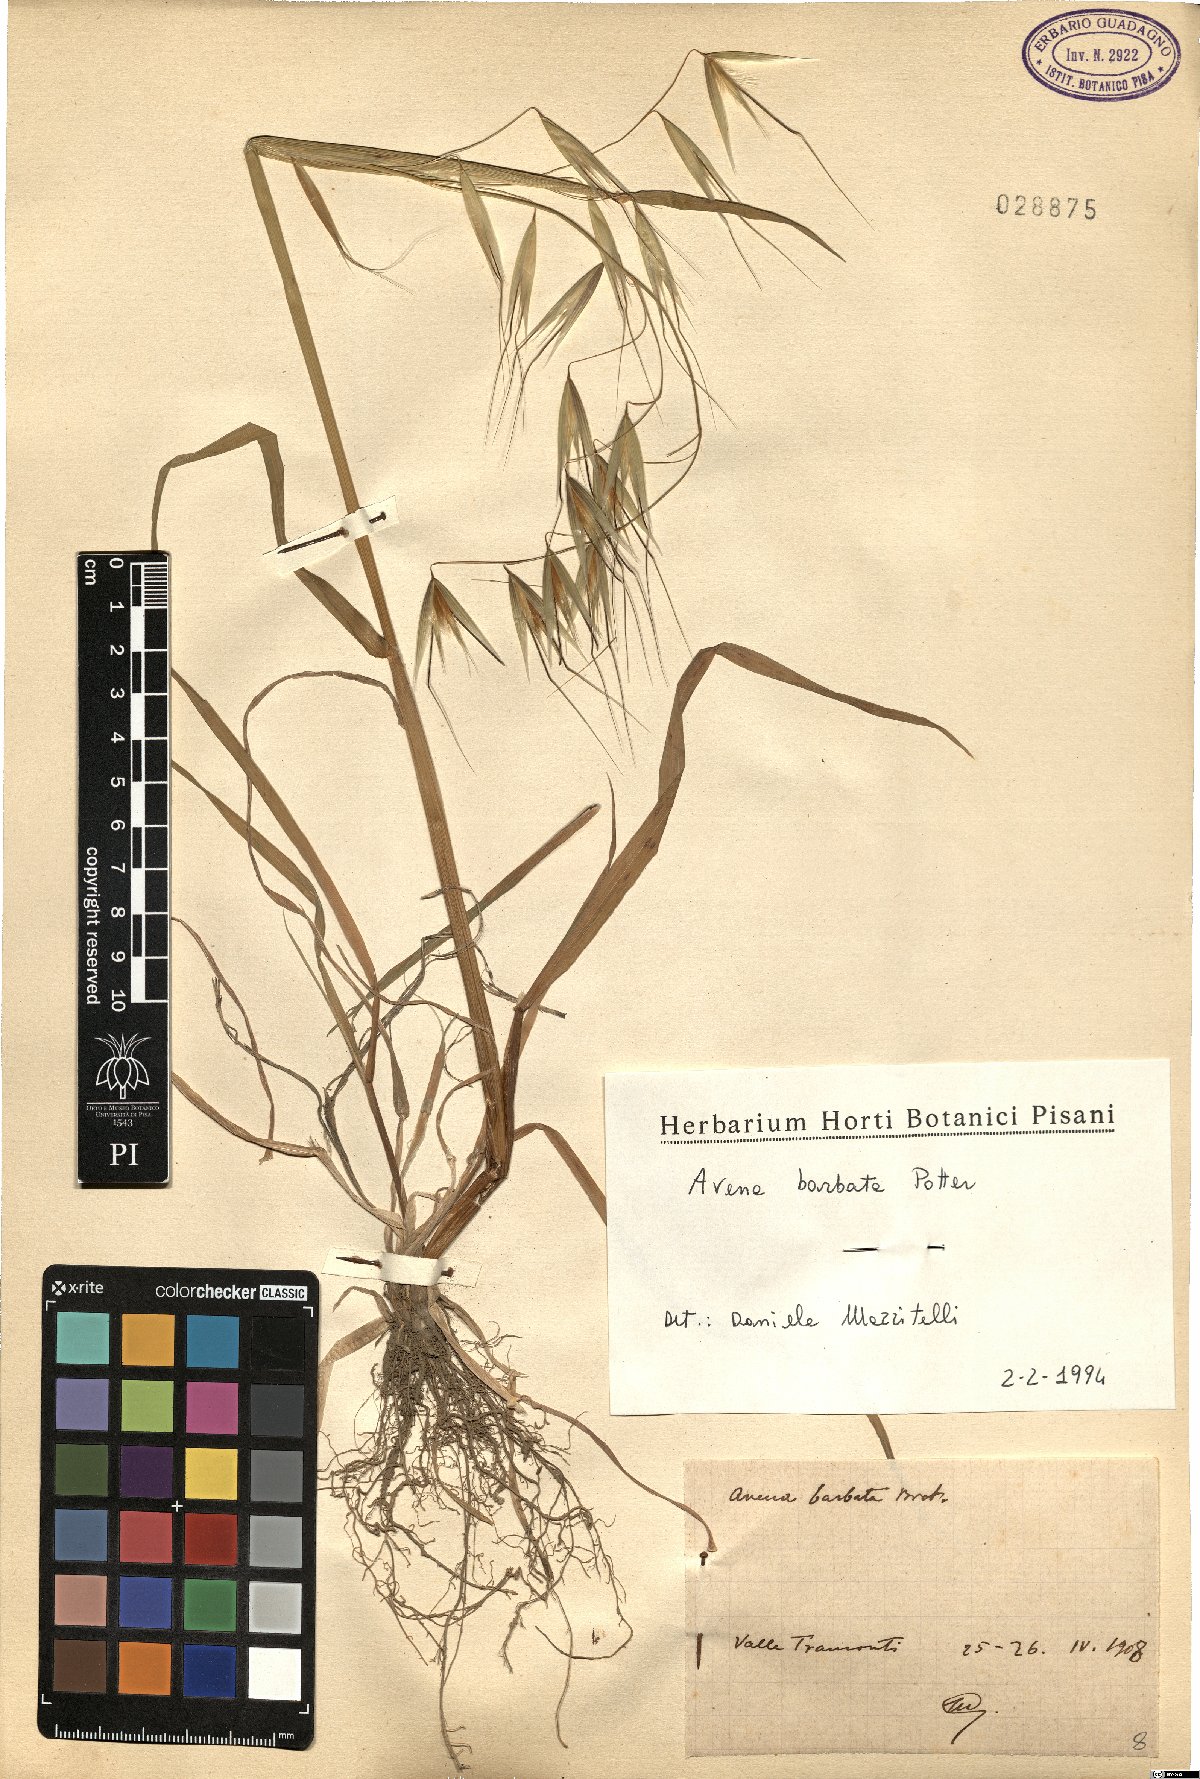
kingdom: Plantae
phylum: Tracheophyta
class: Liliopsida
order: Poales
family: Poaceae
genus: Avena
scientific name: Avena barbata
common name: Slender oat
